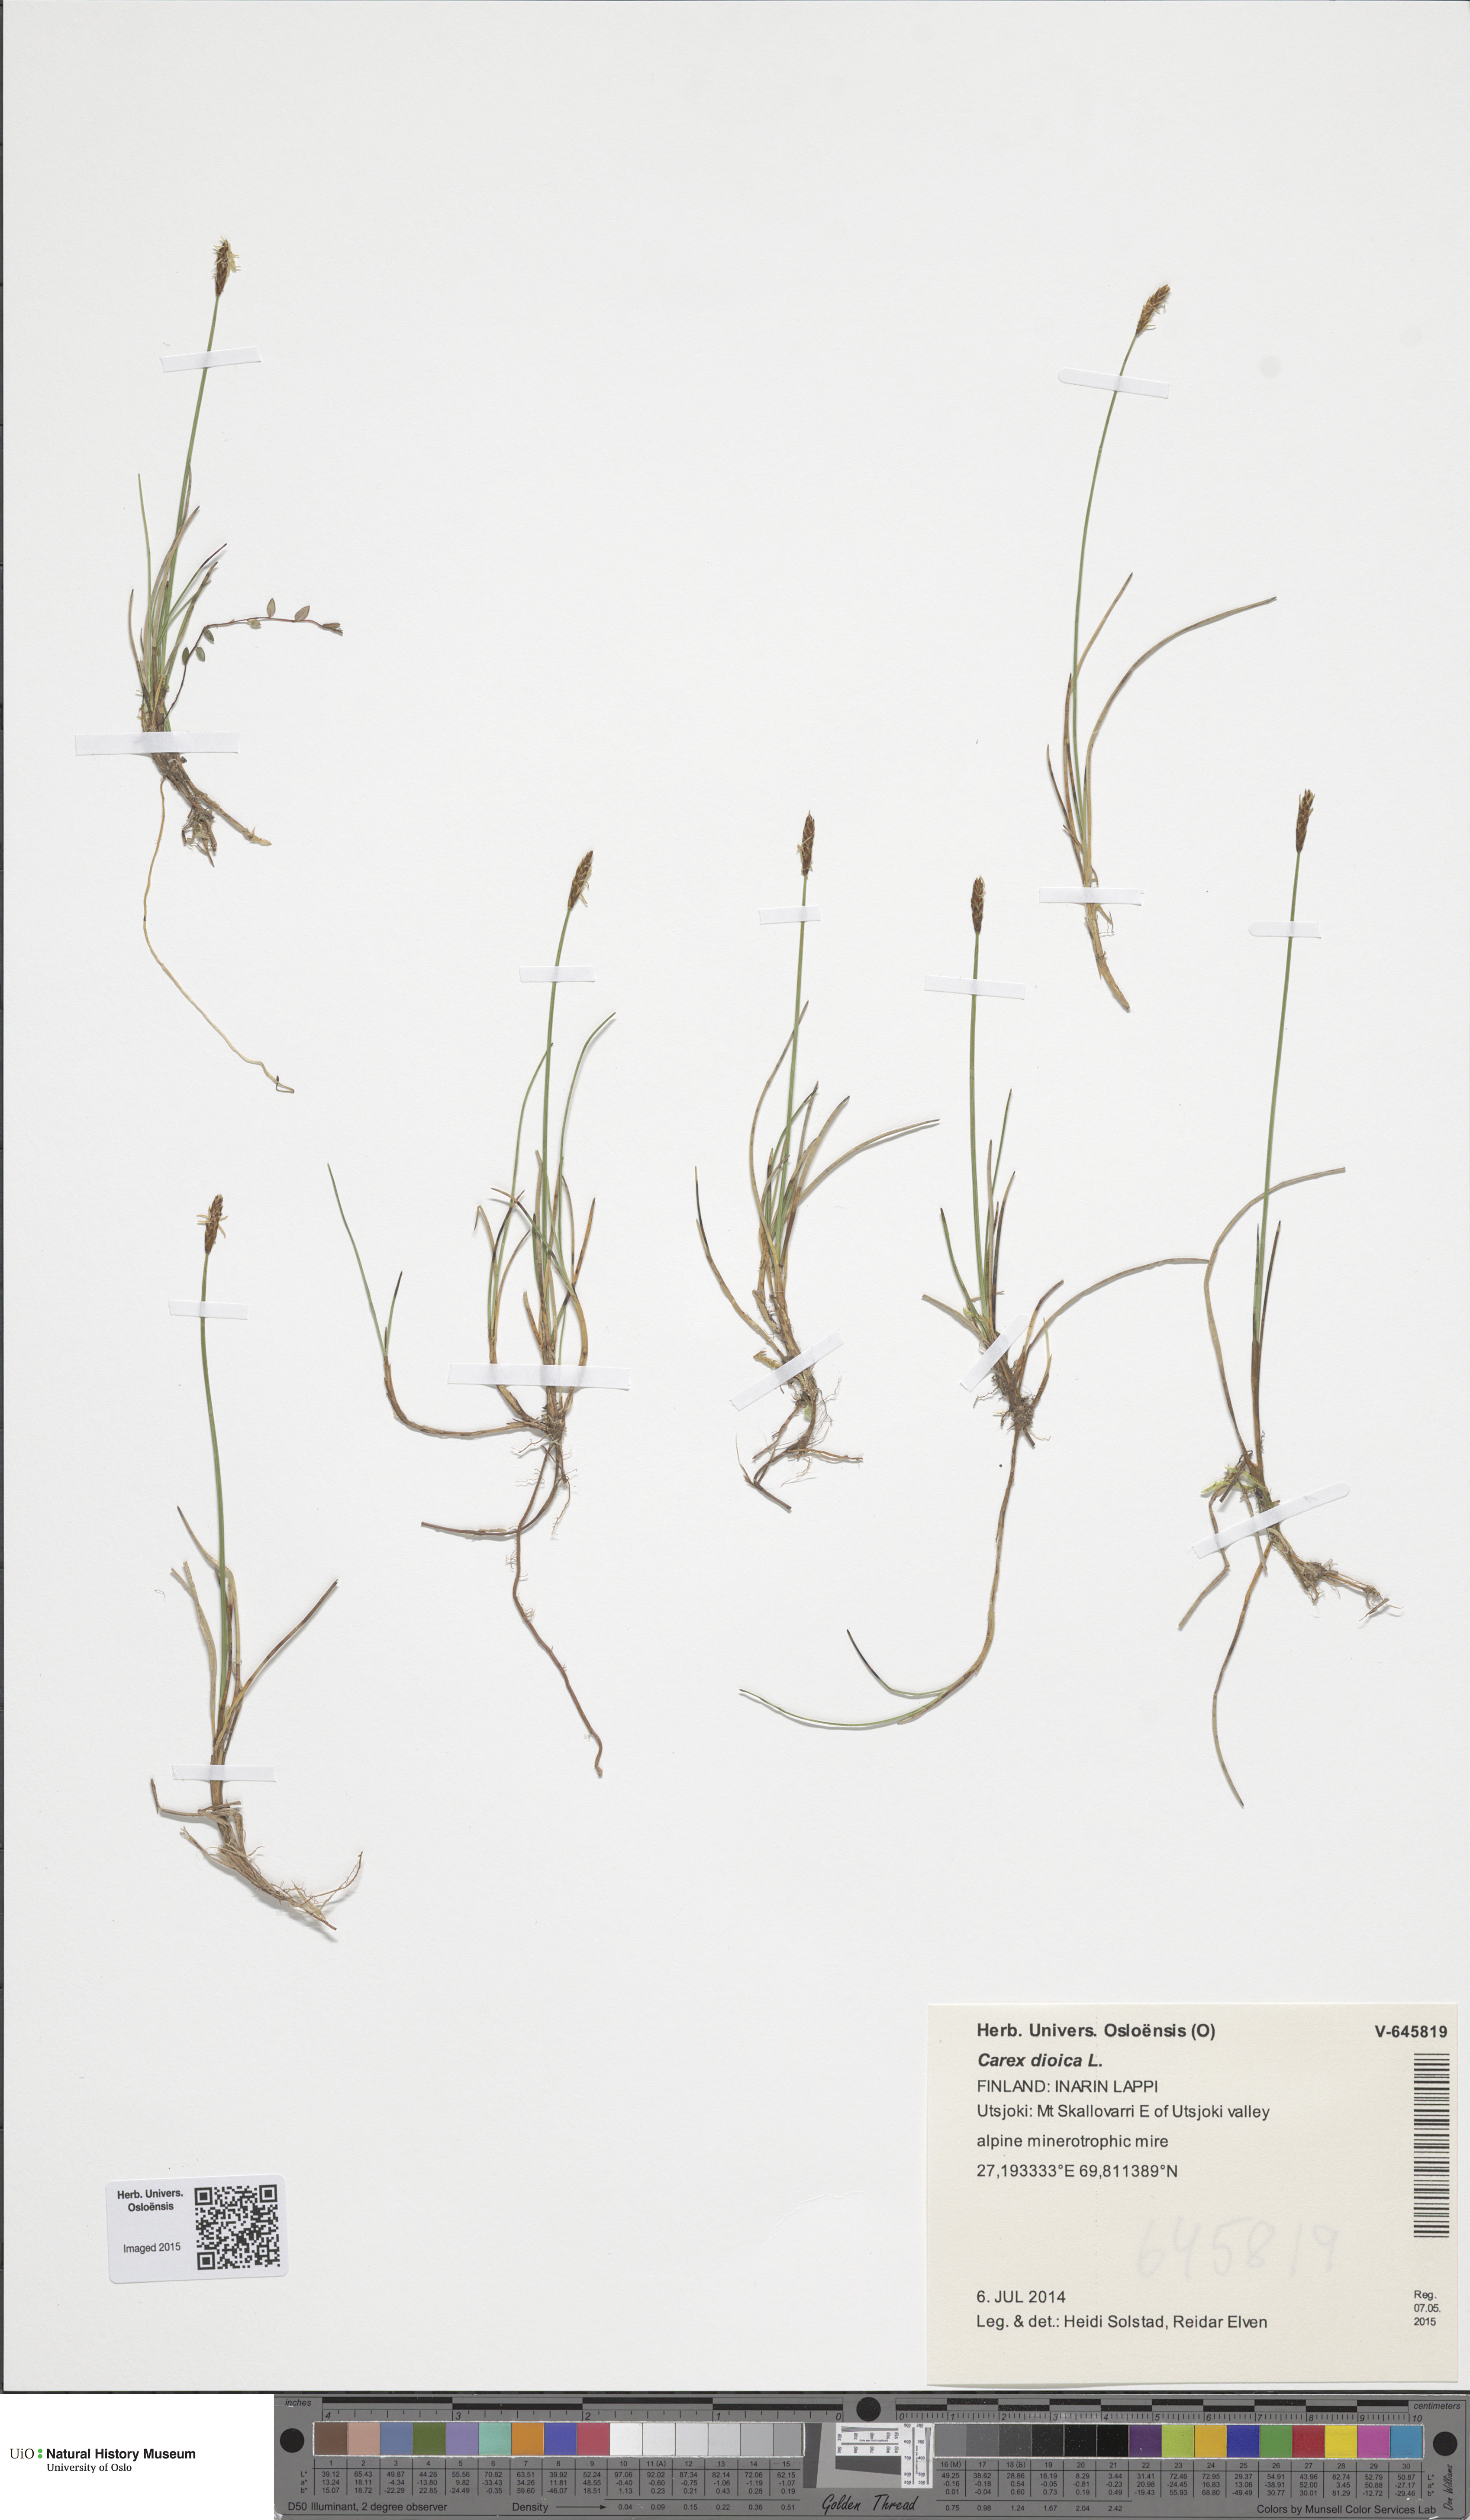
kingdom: Plantae
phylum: Tracheophyta
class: Liliopsida
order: Poales
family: Cyperaceae
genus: Carex
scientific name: Carex dioica
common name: Dioecious sedge
